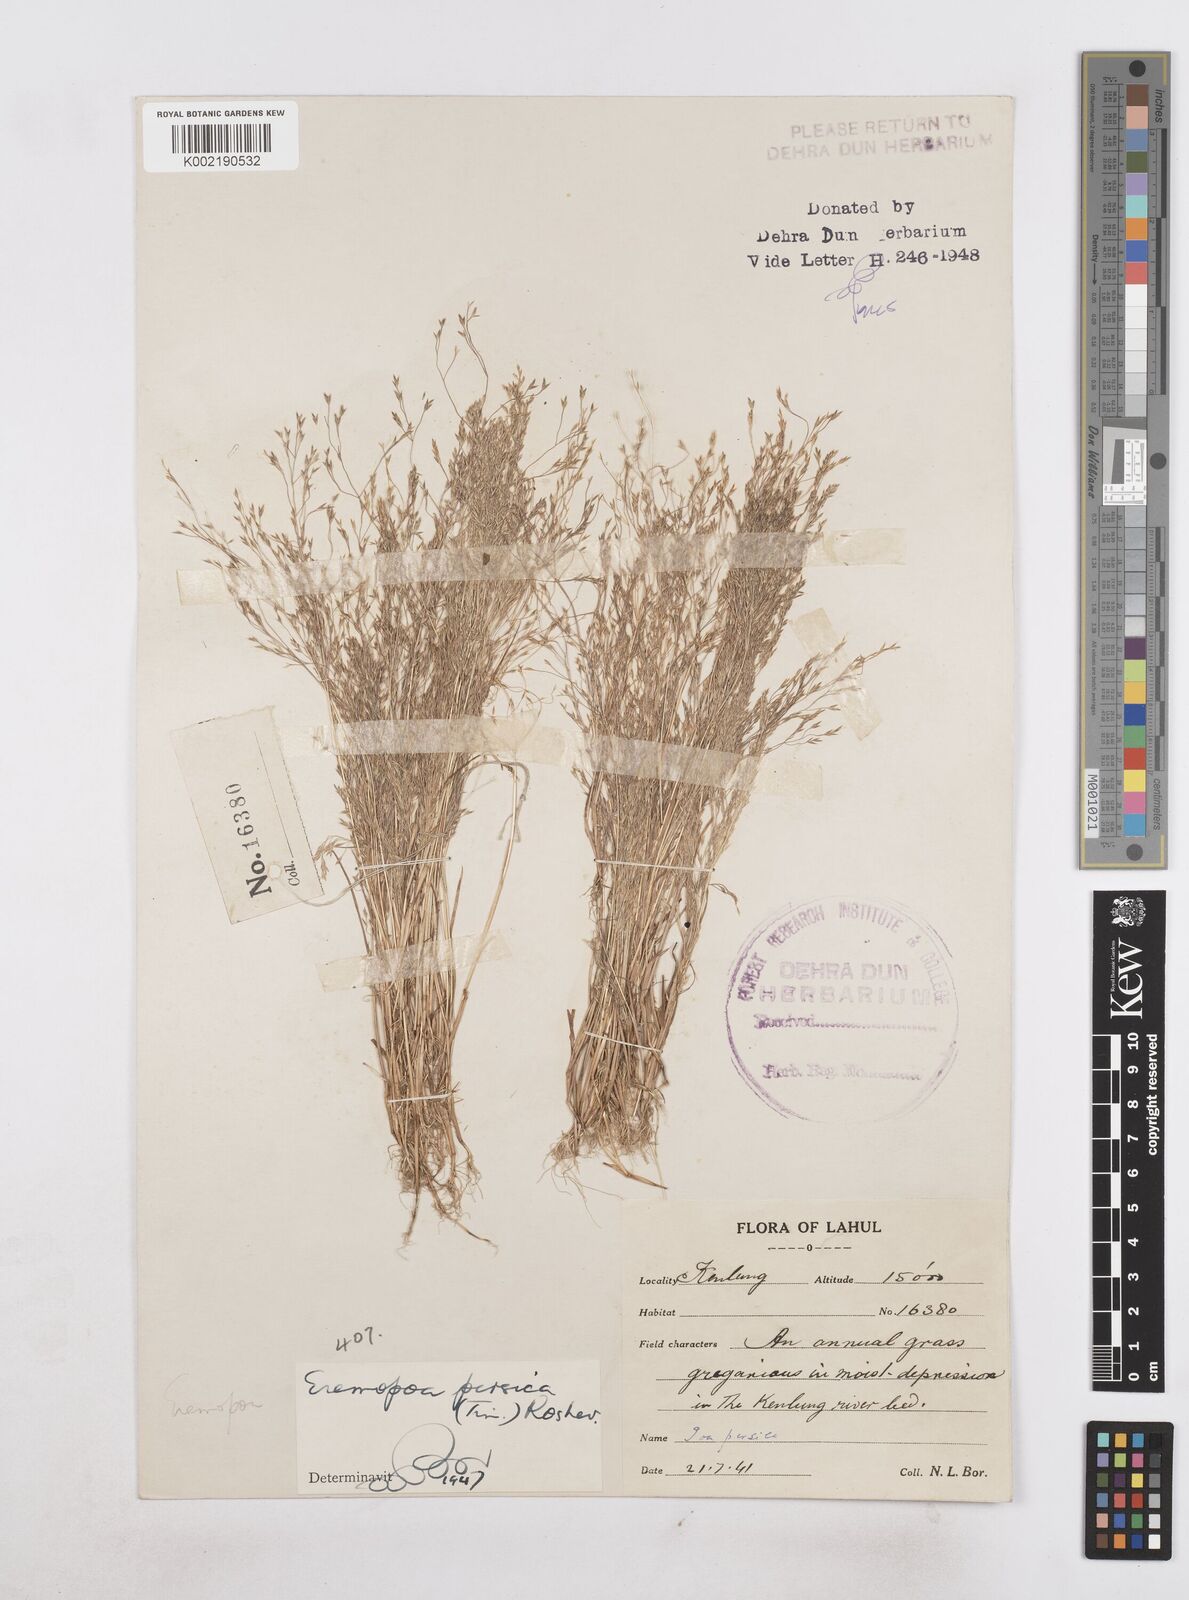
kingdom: Plantae
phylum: Tracheophyta
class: Liliopsida
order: Poales
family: Poaceae
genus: Poa
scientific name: Poa diaphora
